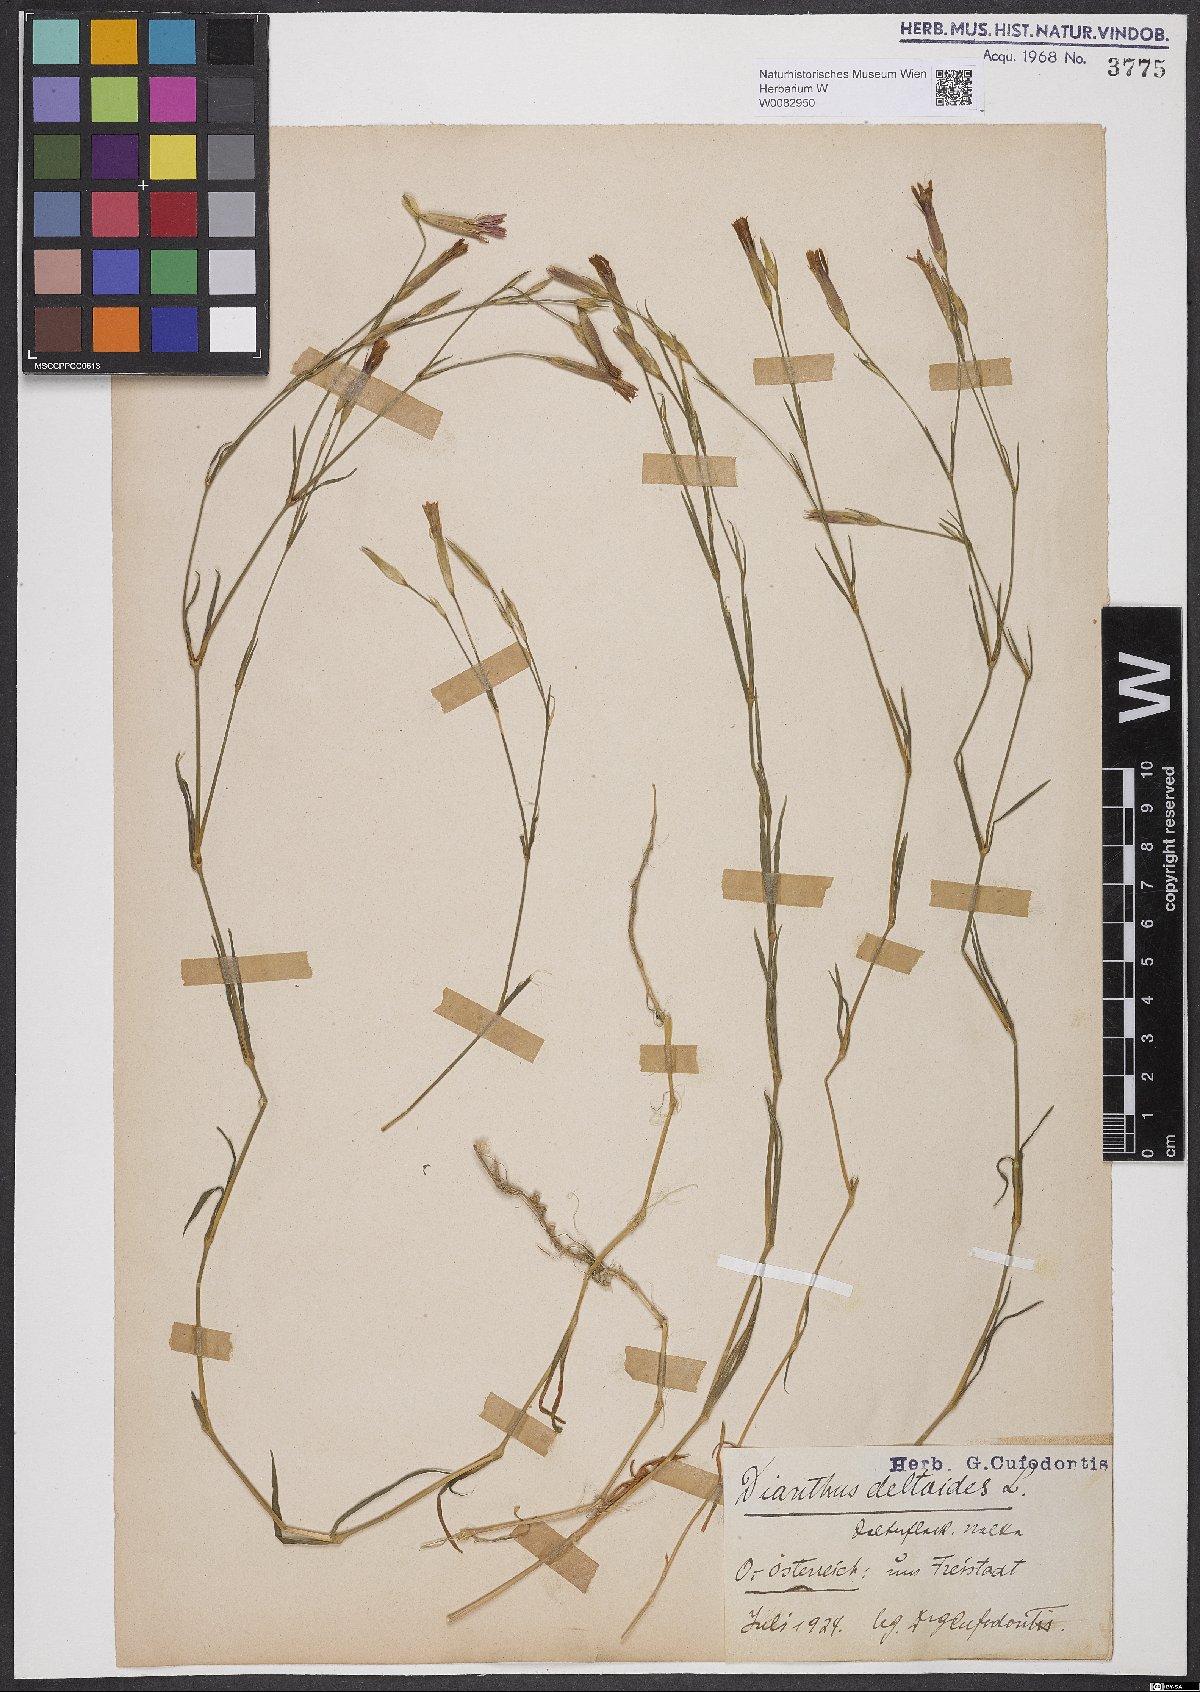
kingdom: Plantae
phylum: Tracheophyta
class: Magnoliopsida
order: Caryophyllales
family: Caryophyllaceae
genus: Dianthus
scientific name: Dianthus deltoides
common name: Maiden pink
